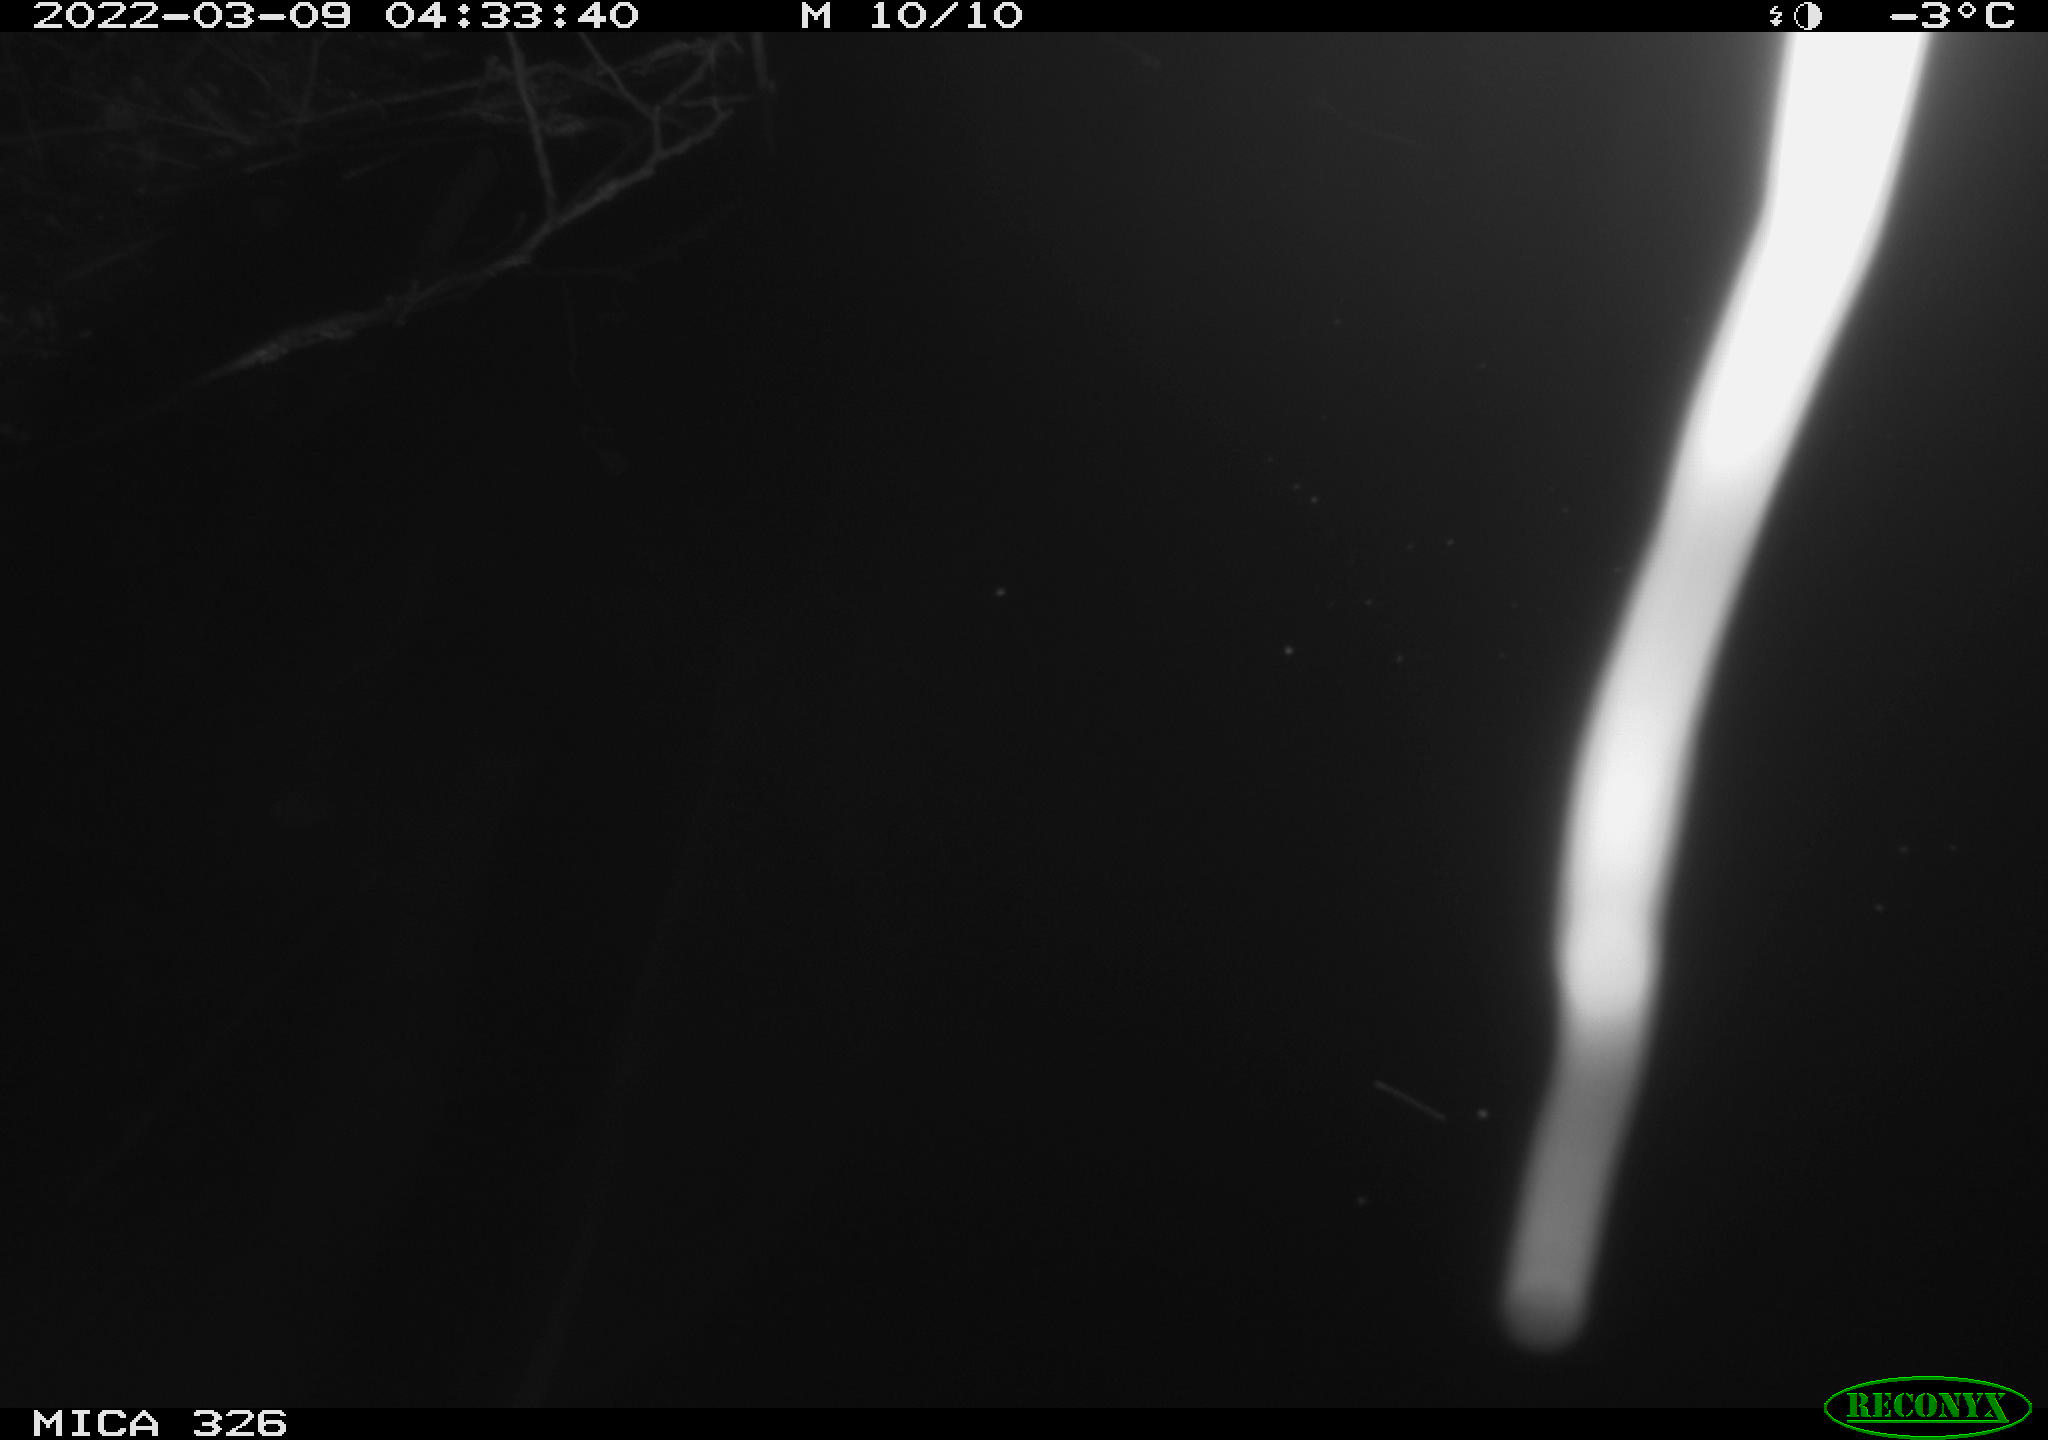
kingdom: Animalia
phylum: Chordata
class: Mammalia
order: Rodentia
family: Cricetidae
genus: Ondatra
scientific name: Ondatra zibethicus
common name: Muskrat
